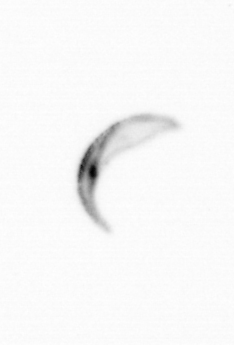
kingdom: Chromista
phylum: Ochrophyta
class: Bacillariophyceae
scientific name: Bacillariophyceae
